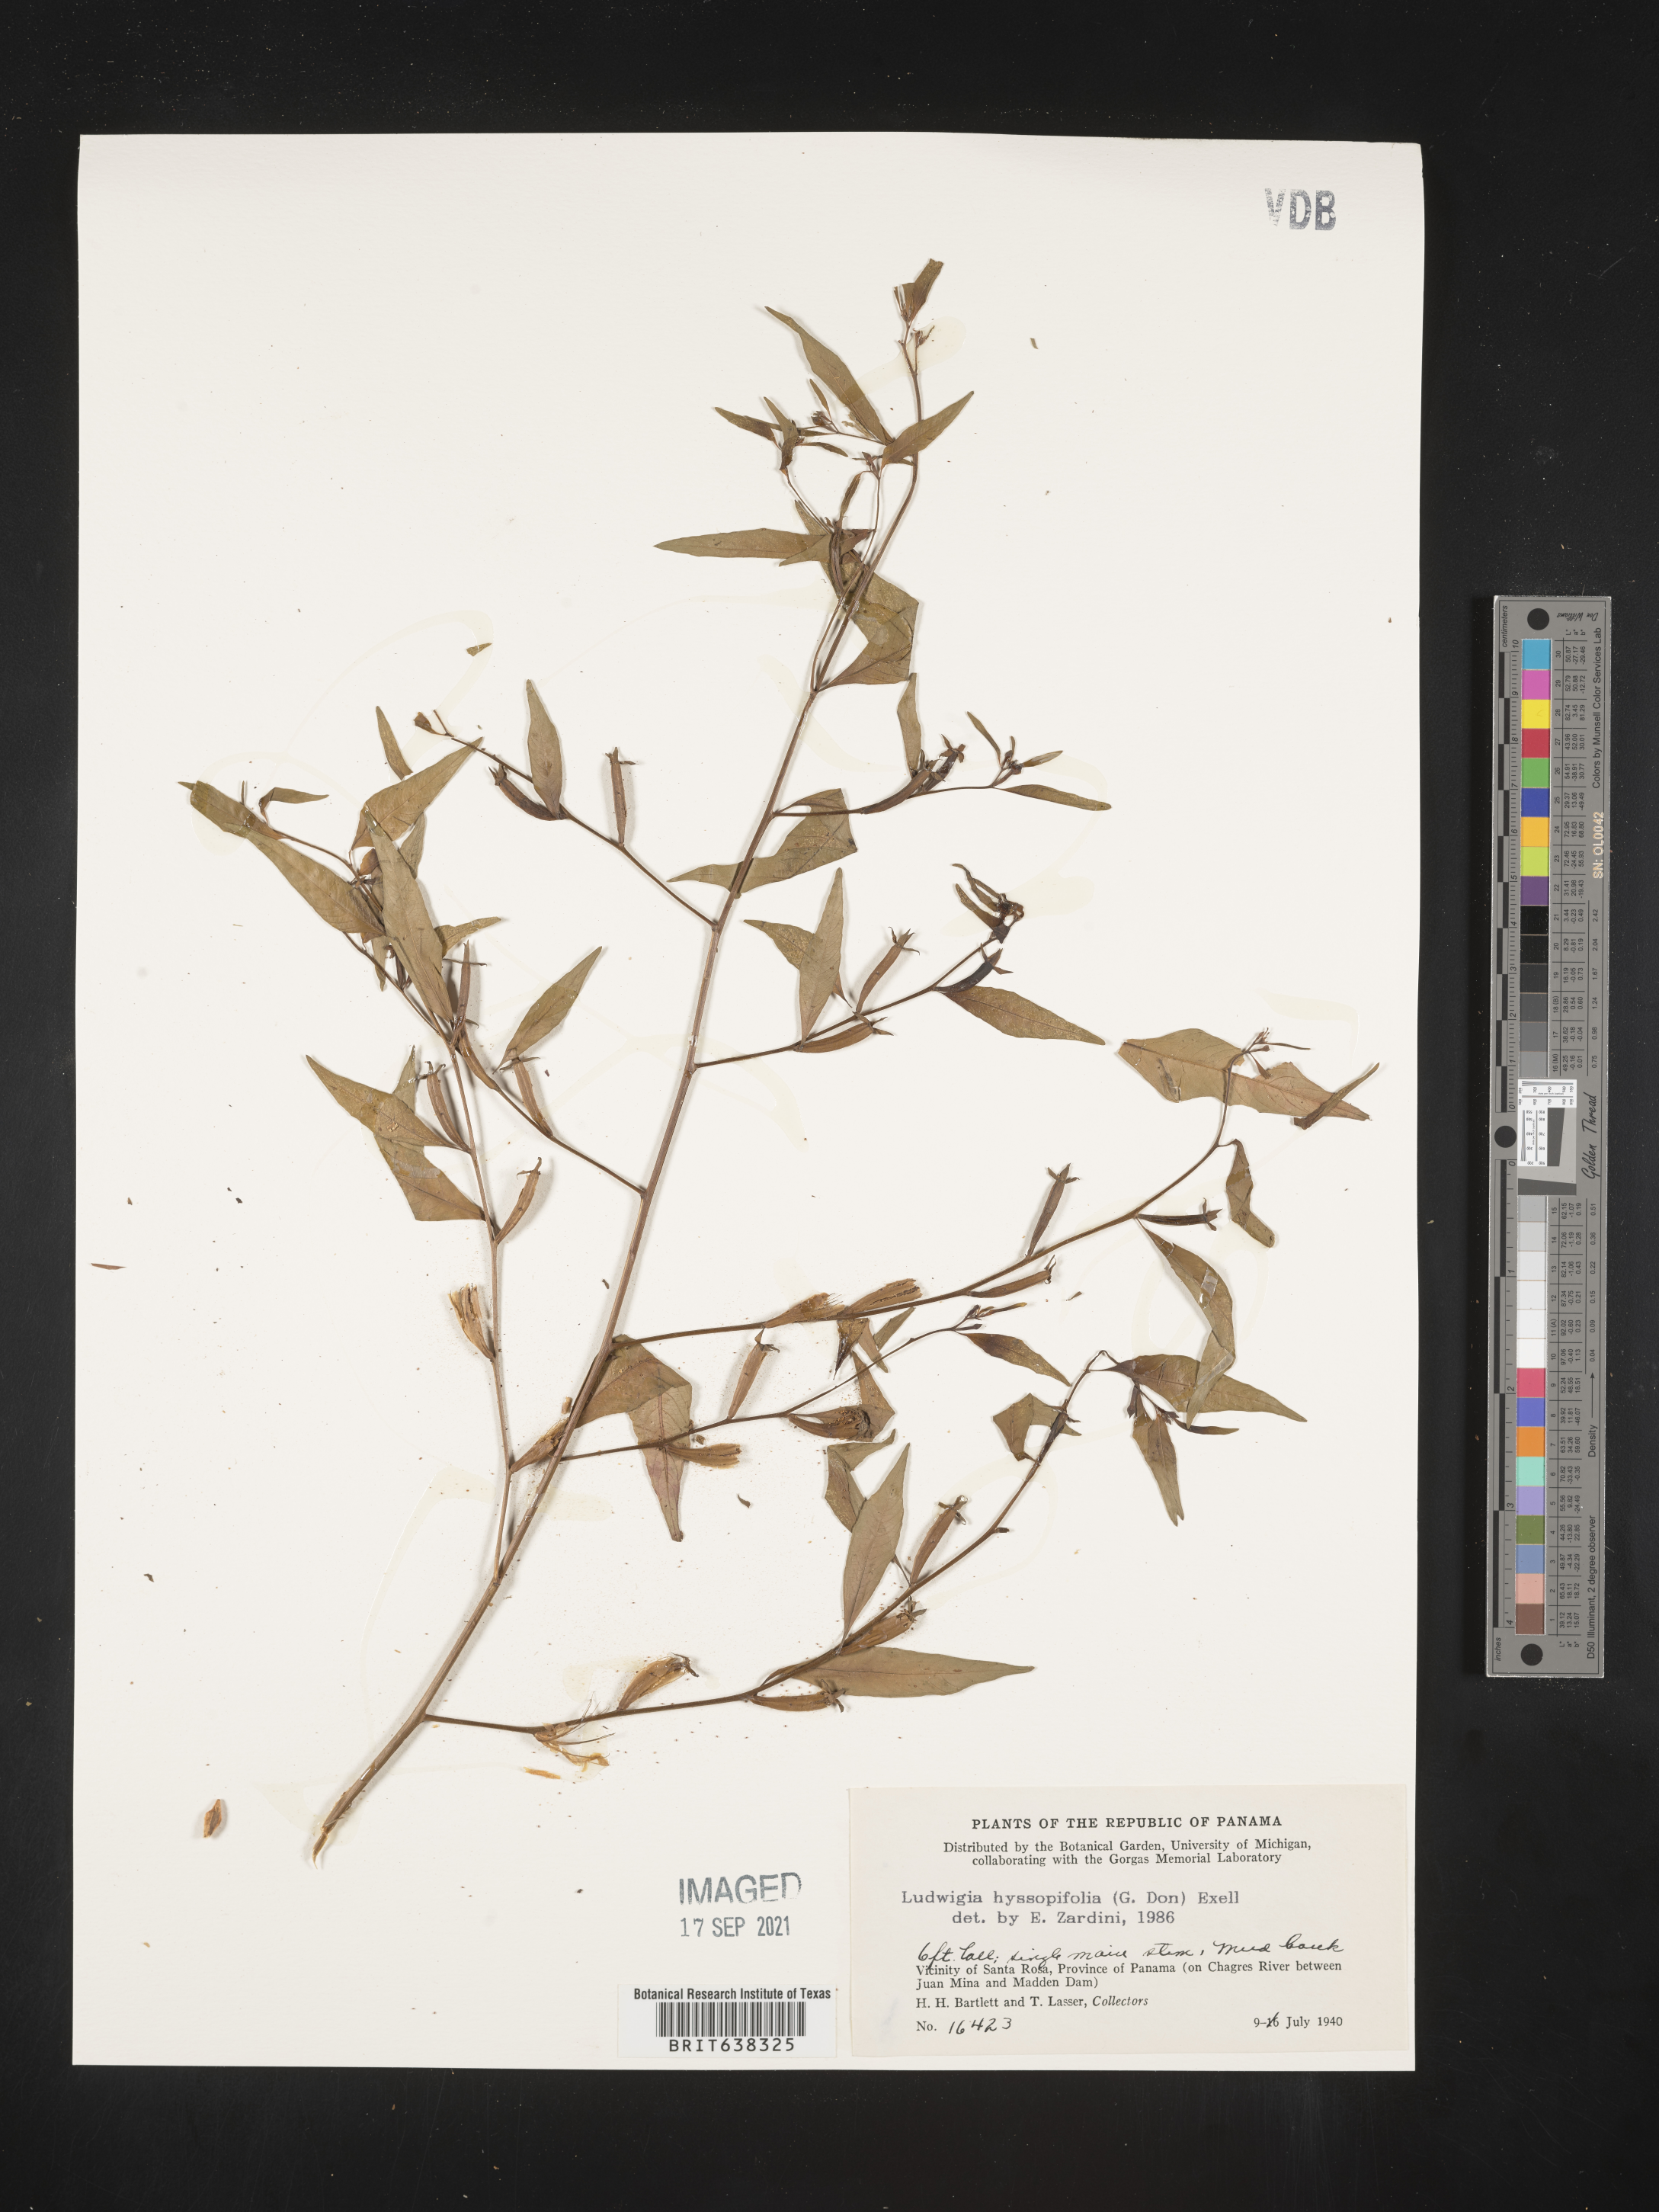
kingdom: Plantae
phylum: Tracheophyta
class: Magnoliopsida
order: Myrtales
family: Onagraceae
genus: Ludwigia
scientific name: Ludwigia
